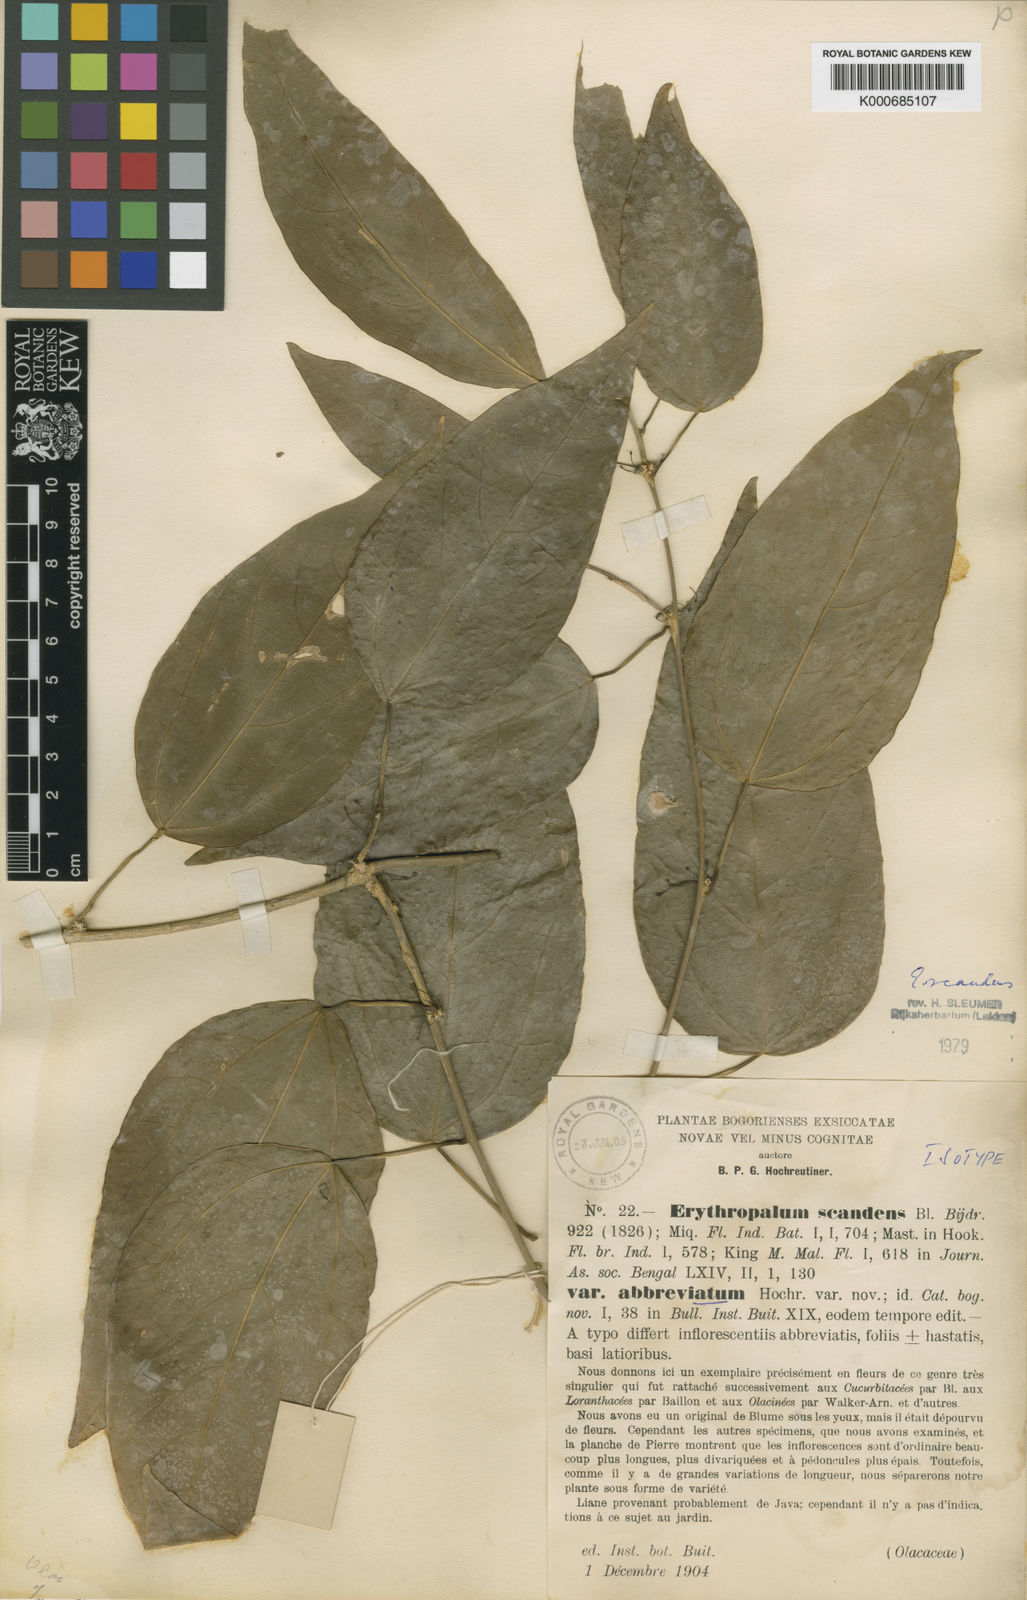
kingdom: Plantae
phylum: Tracheophyta
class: Magnoliopsida
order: Santalales
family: Erythropalaceae
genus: Erythropalum
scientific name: Erythropalum scandens
